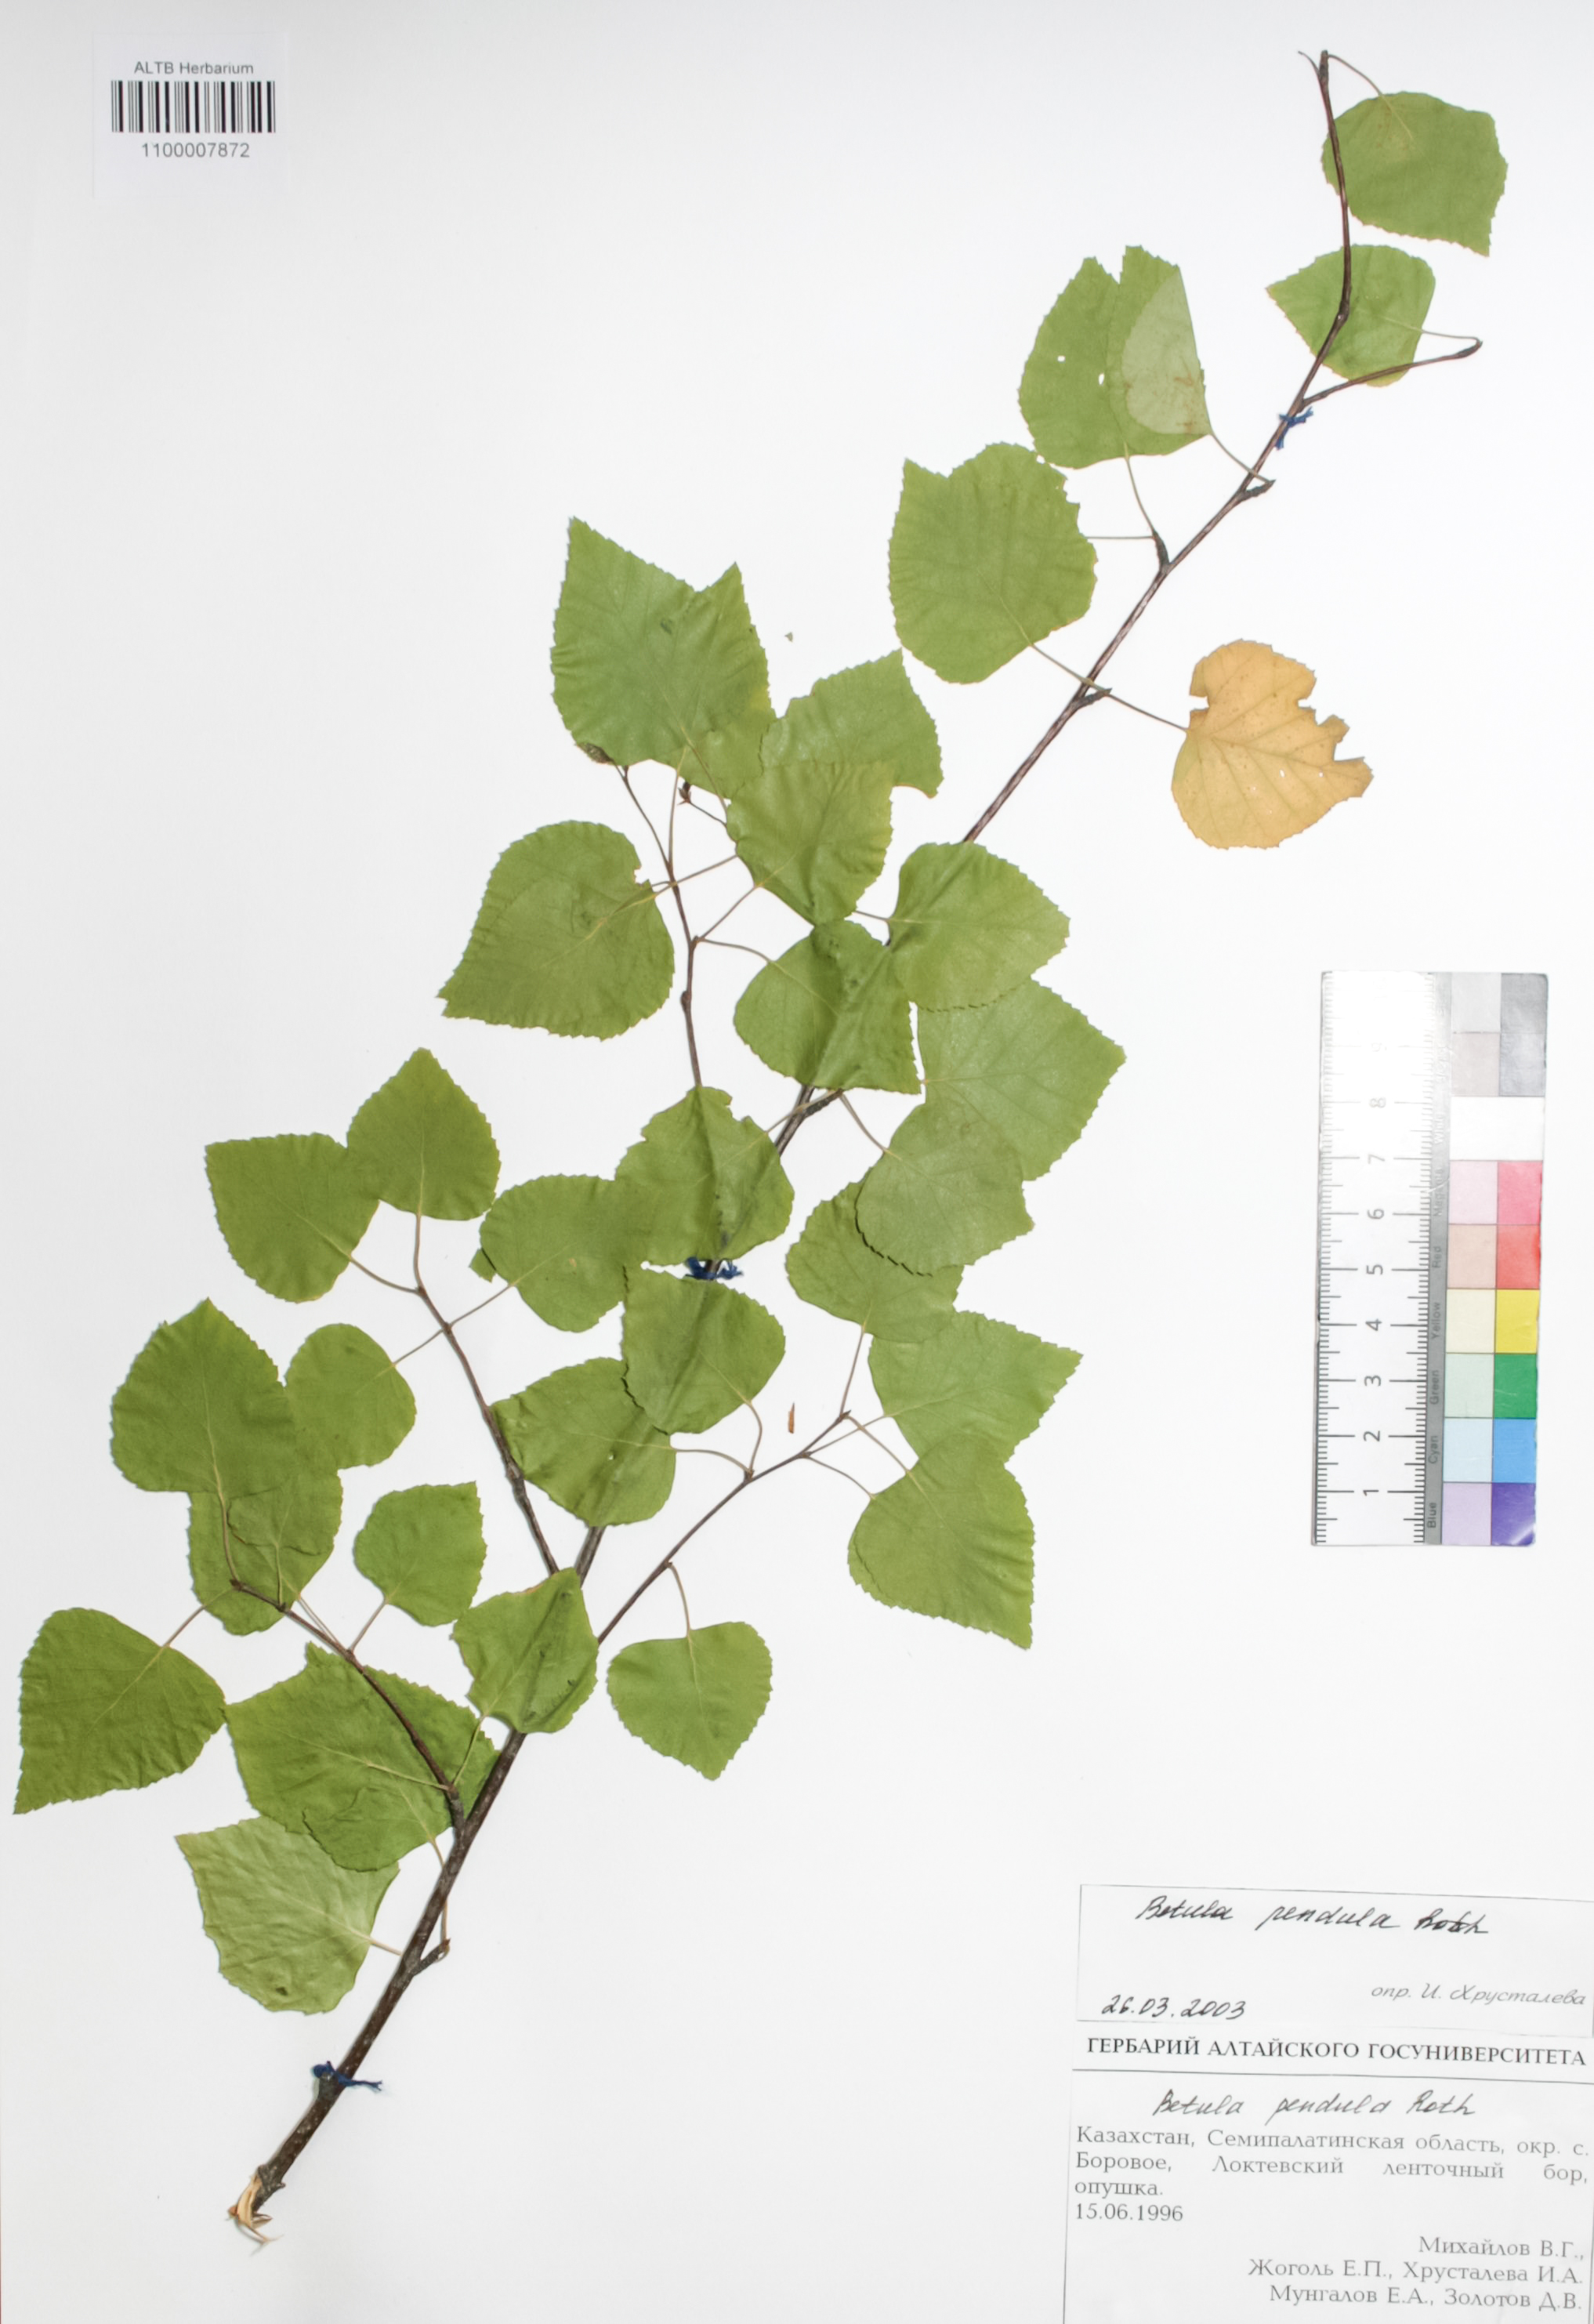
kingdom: Plantae
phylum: Tracheophyta
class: Magnoliopsida
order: Fagales
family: Betulaceae
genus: Betula
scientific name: Betula pendula
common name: Silver birch
